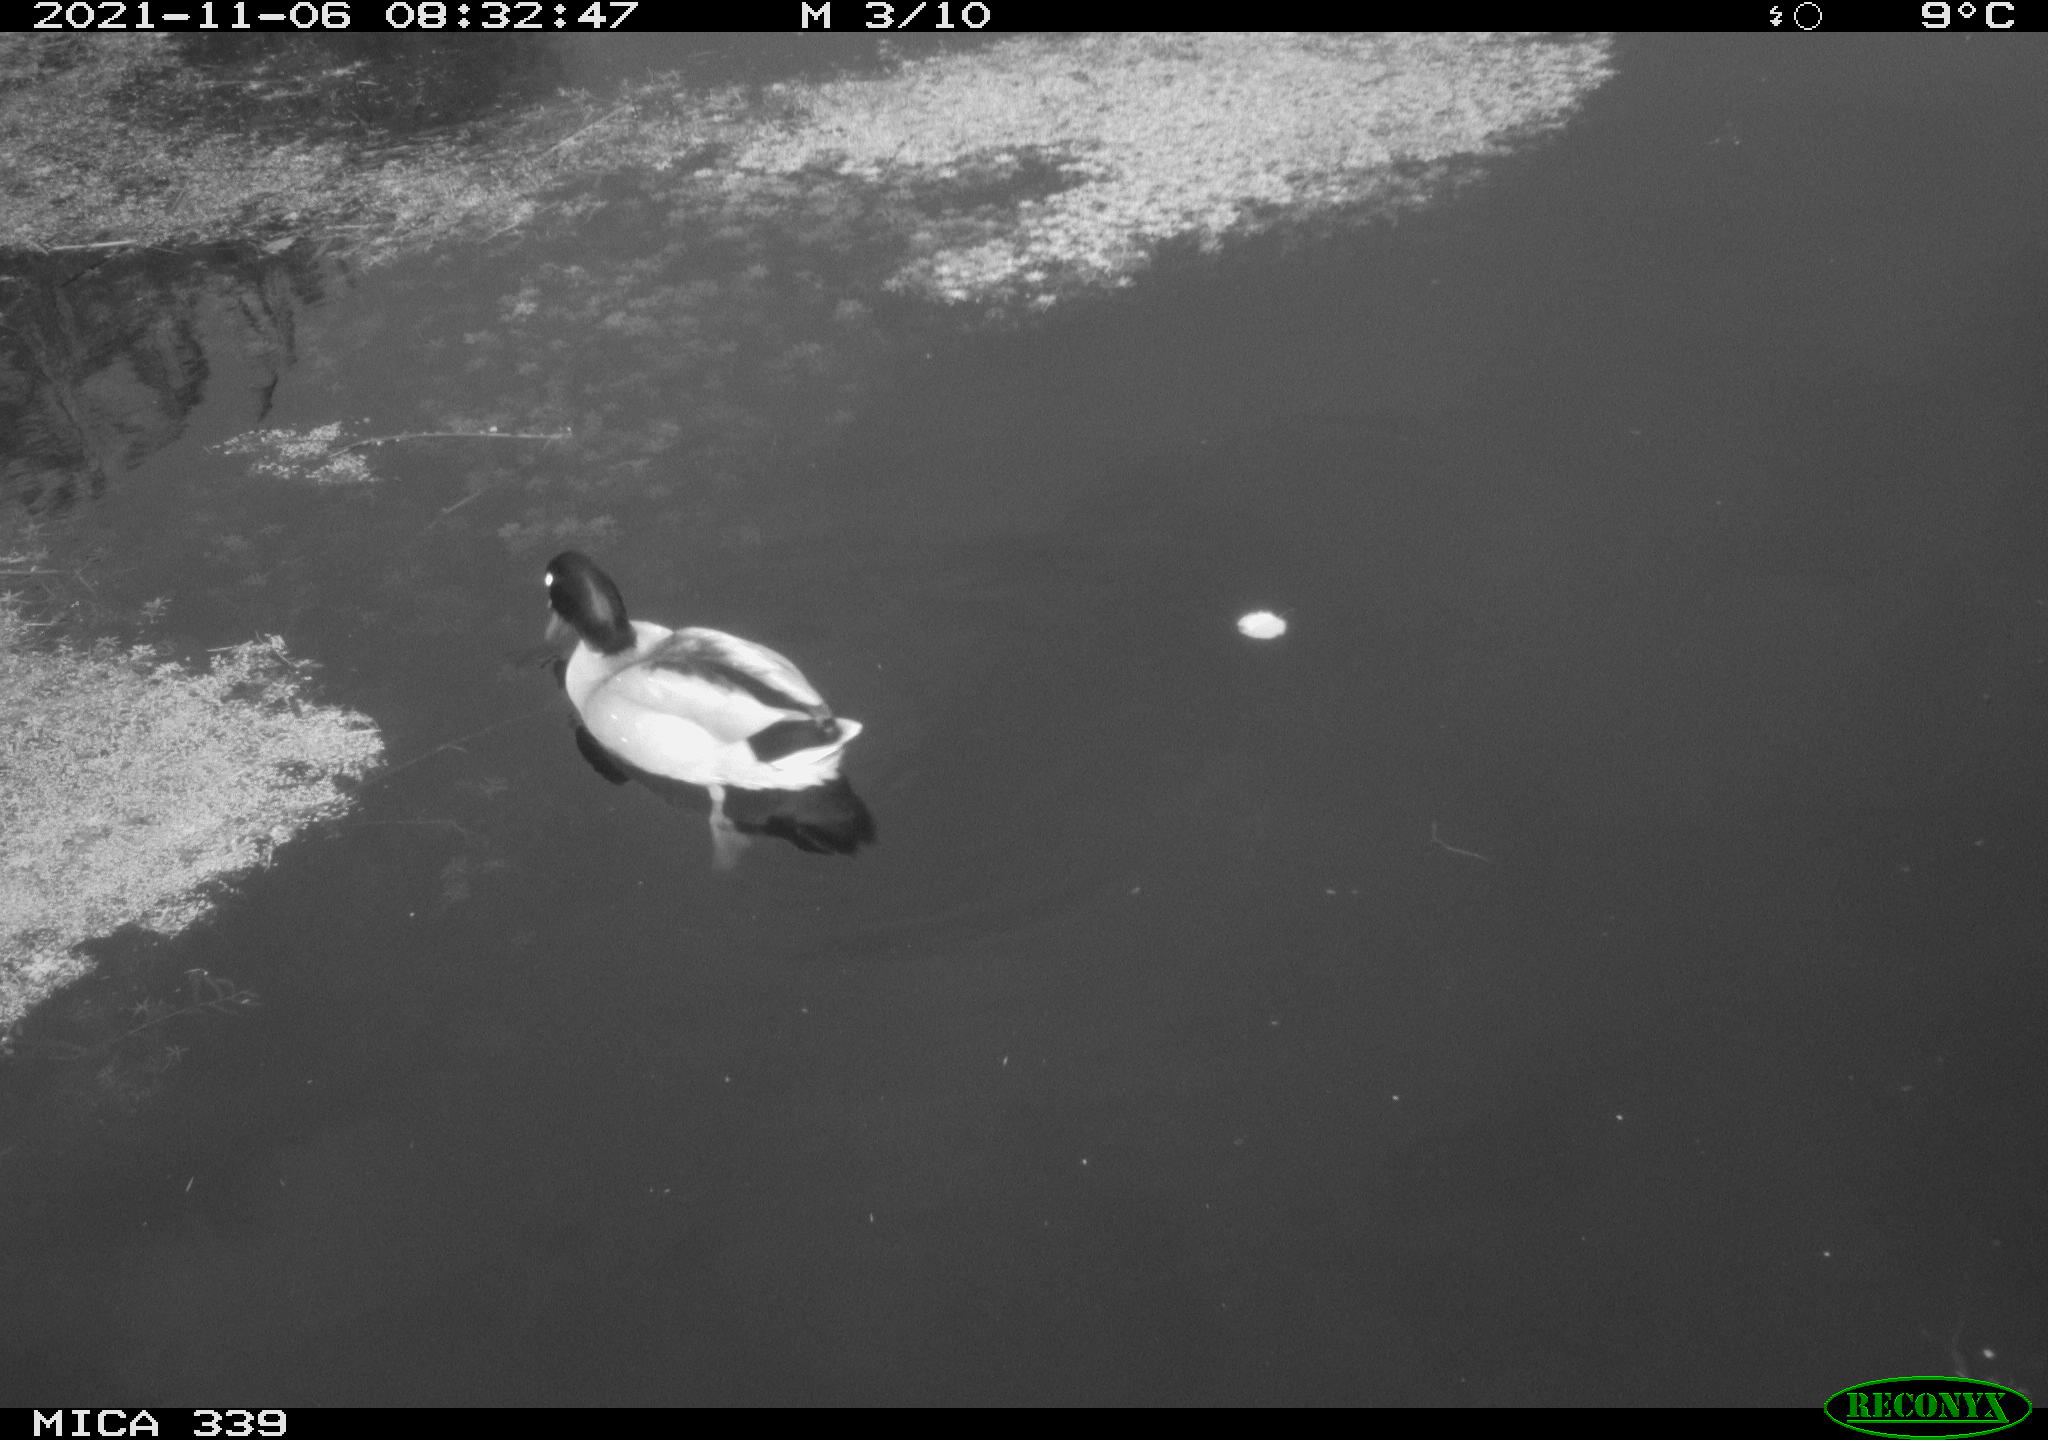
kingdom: Animalia
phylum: Chordata
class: Aves
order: Anseriformes
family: Anatidae
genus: Anas
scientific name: Anas platyrhynchos
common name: Mallard
